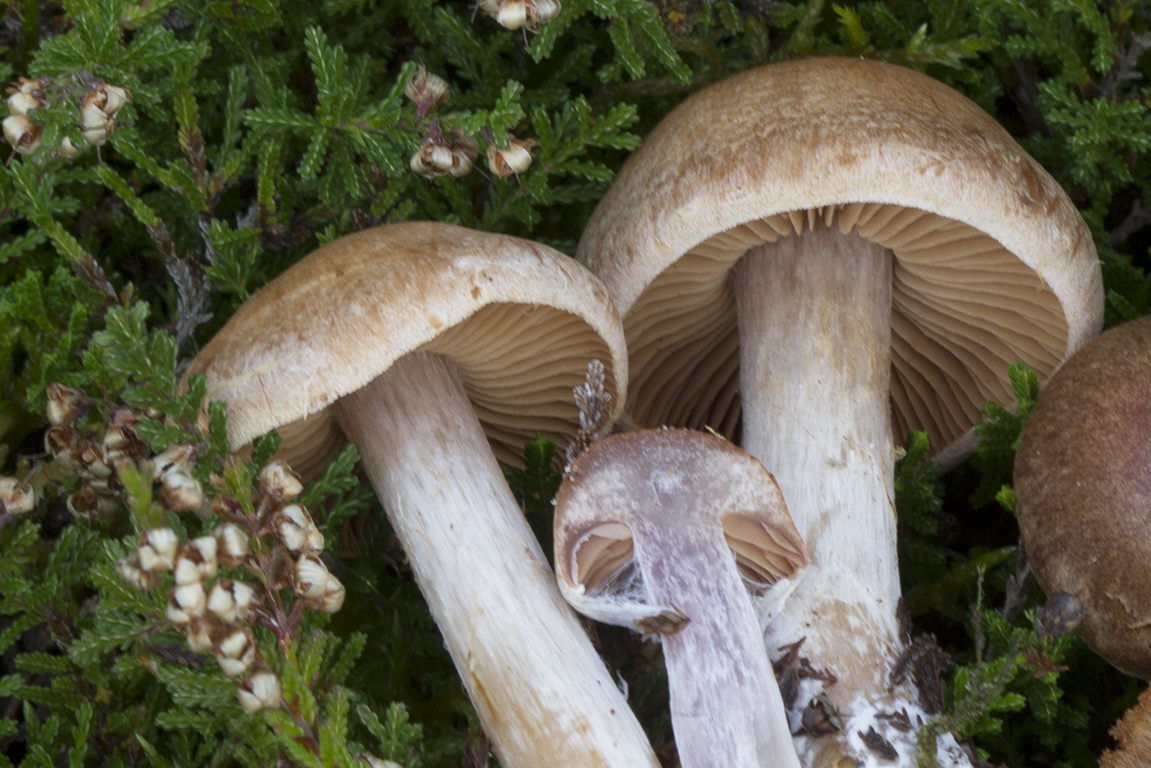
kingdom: Fungi
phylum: Basidiomycota
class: Agaricomycetes
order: Agaricales
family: Cortinariaceae
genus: Cortinarius
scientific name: Cortinarius
